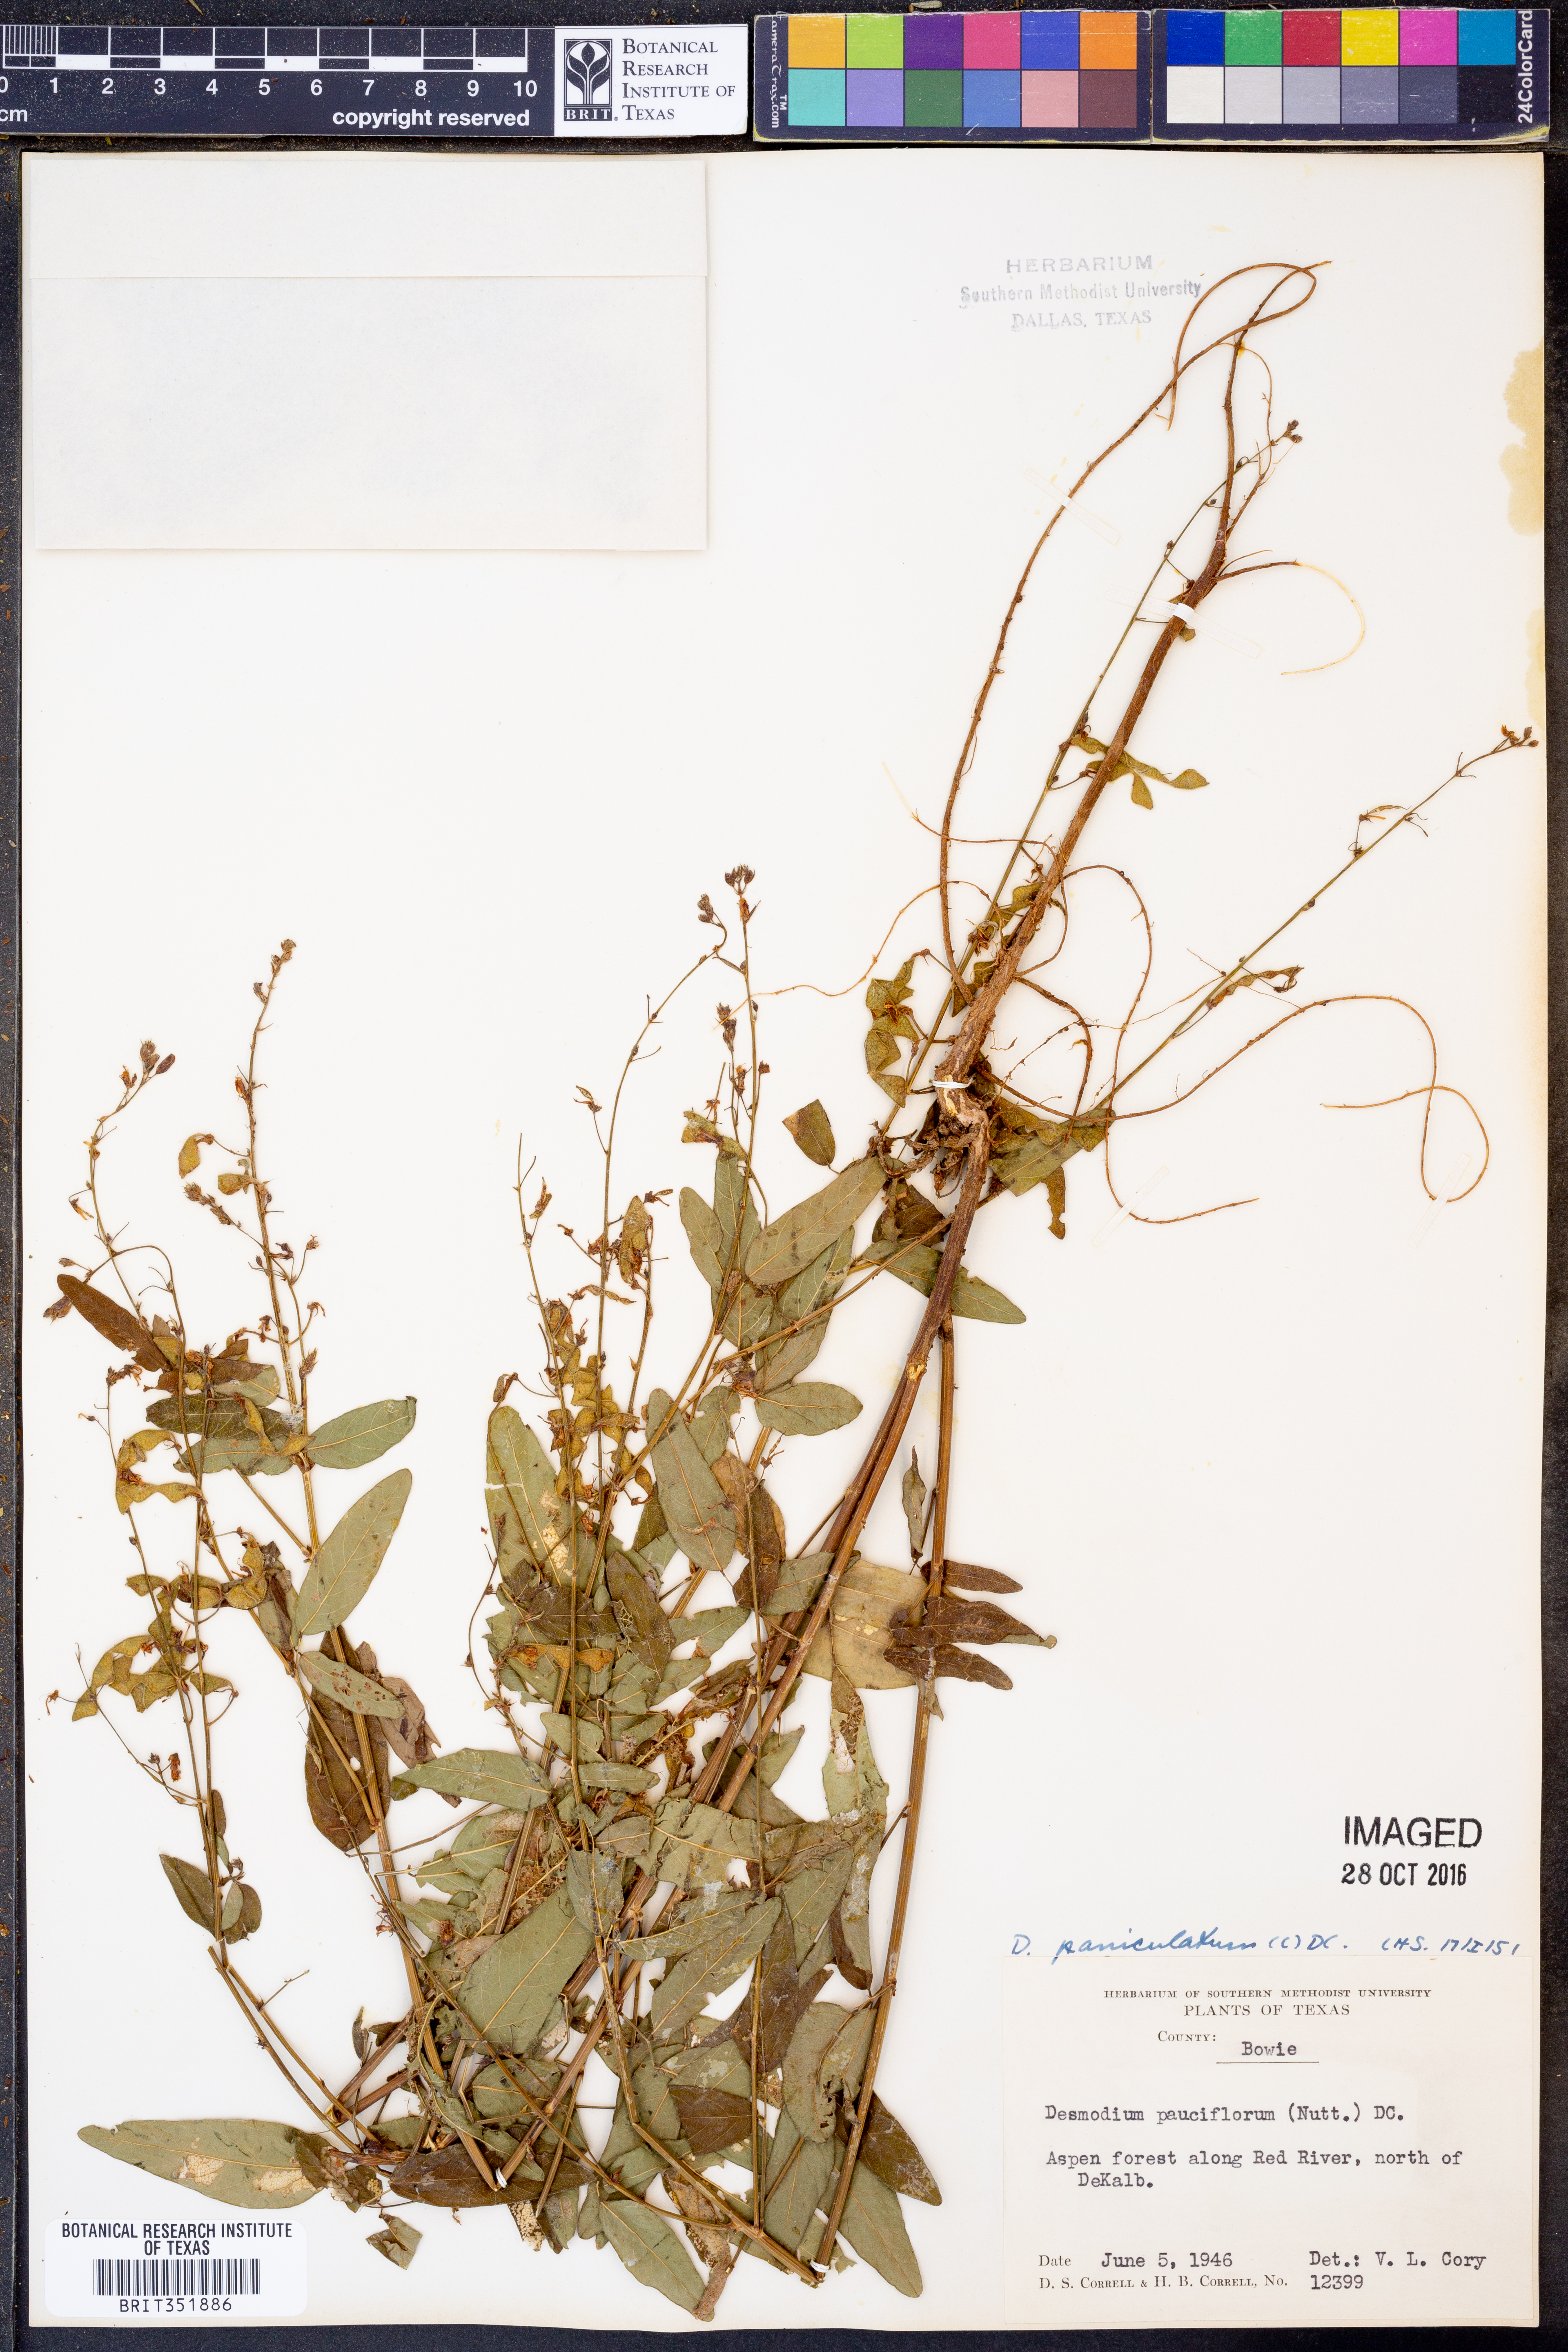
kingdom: Plantae
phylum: Tracheophyta
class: Magnoliopsida
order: Fabales
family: Fabaceae
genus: Desmodium
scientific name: Desmodium paniculatum
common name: Panicled tick-clover
